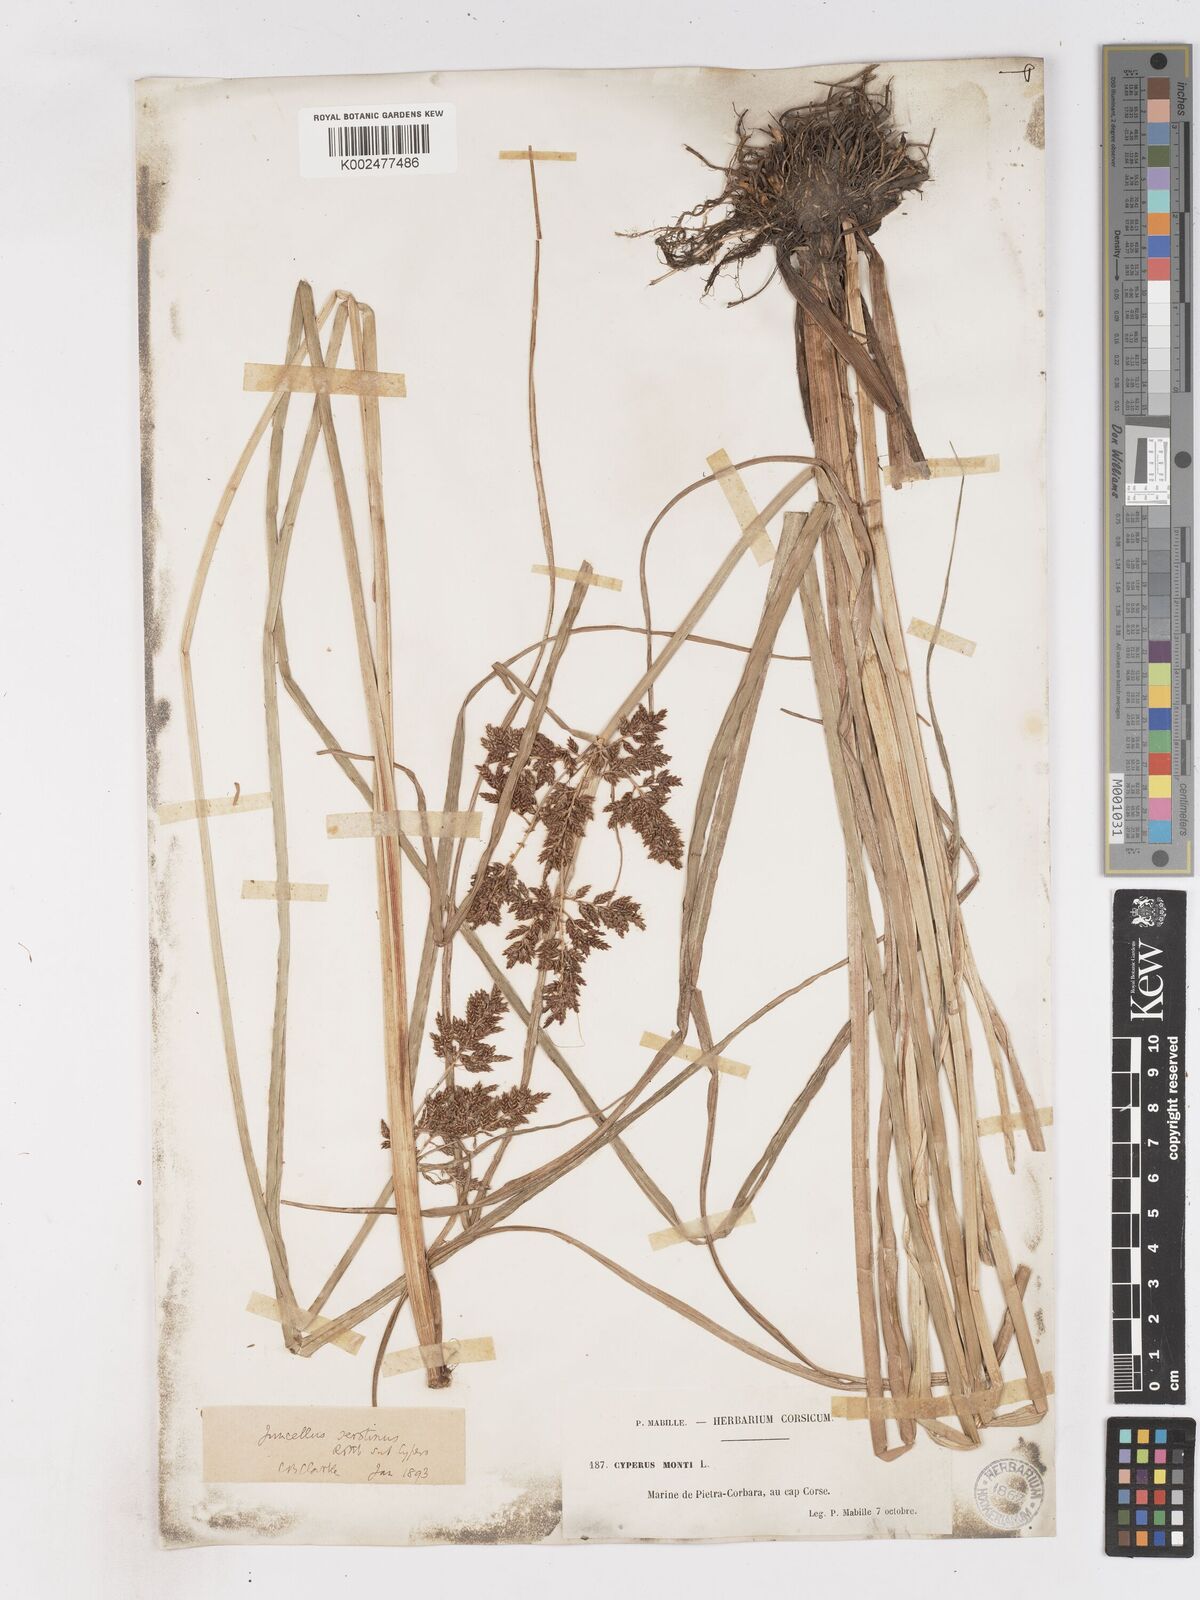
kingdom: Plantae
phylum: Tracheophyta
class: Liliopsida
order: Poales
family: Cyperaceae
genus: Cyperus
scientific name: Cyperus serotinus
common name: Tidalmarsh flatsedge
